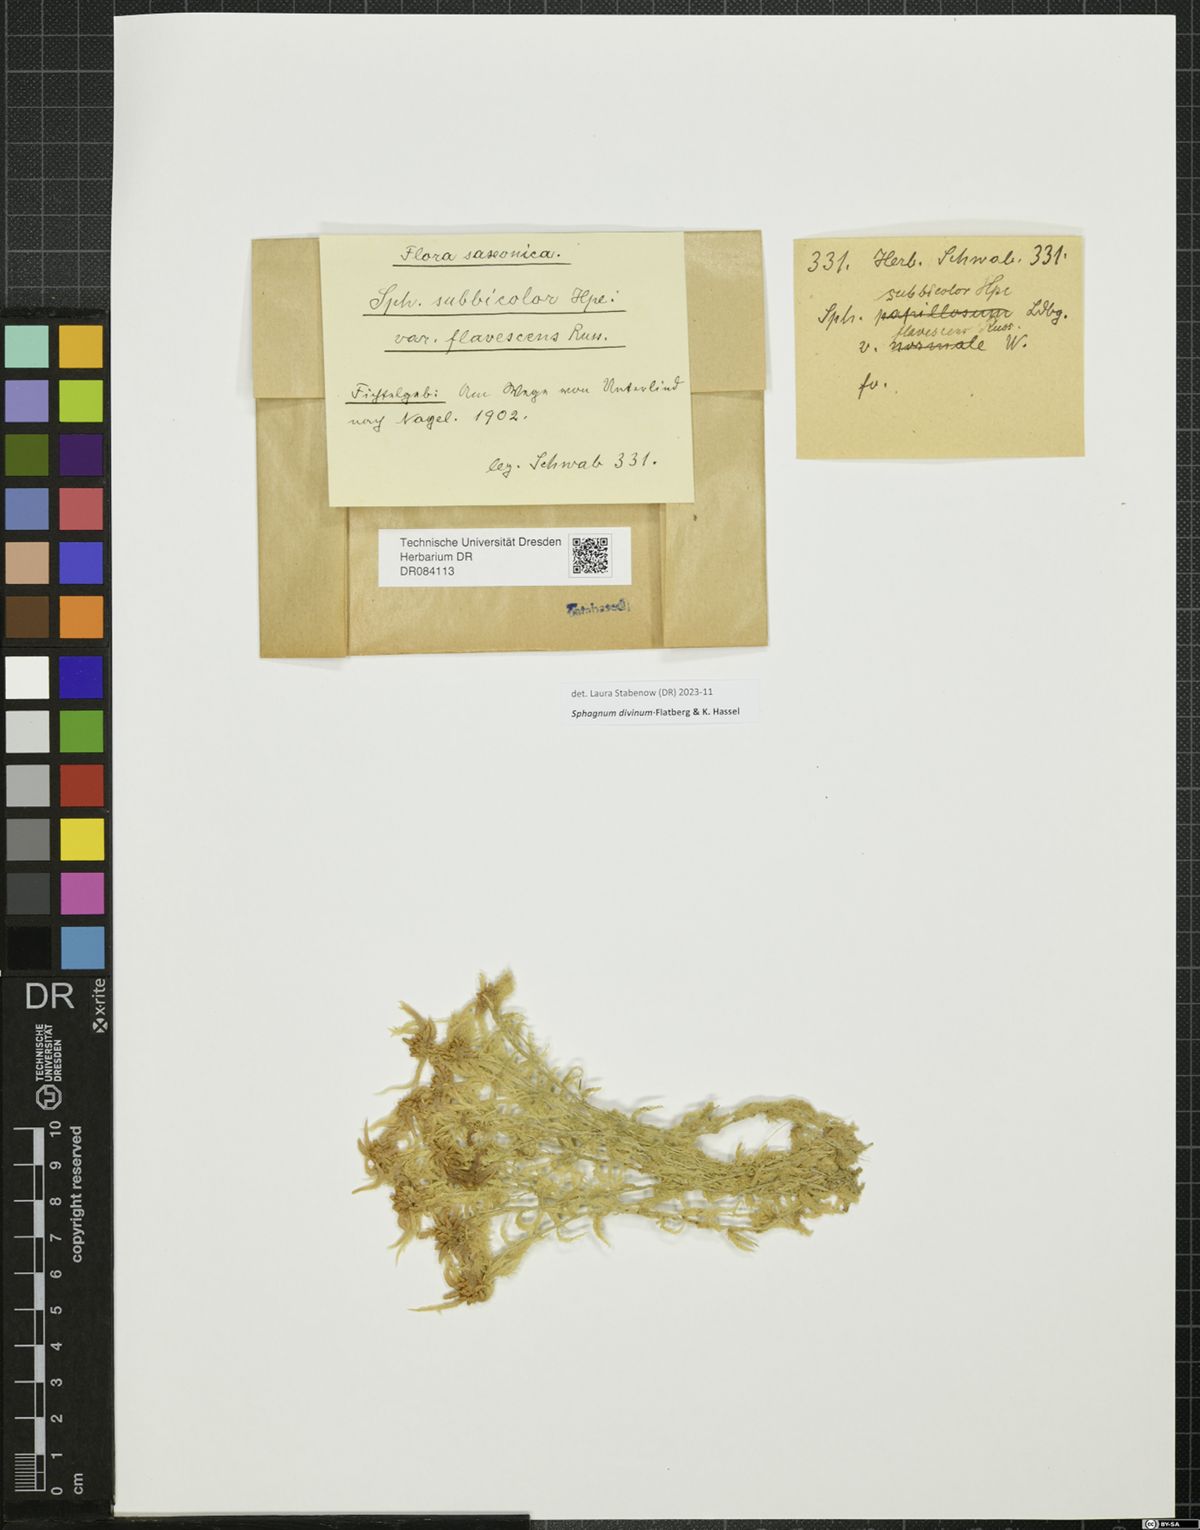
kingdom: Plantae
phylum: Bryophyta
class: Sphagnopsida
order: Sphagnales
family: Sphagnaceae
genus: Sphagnum
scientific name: Sphagnum divinum
